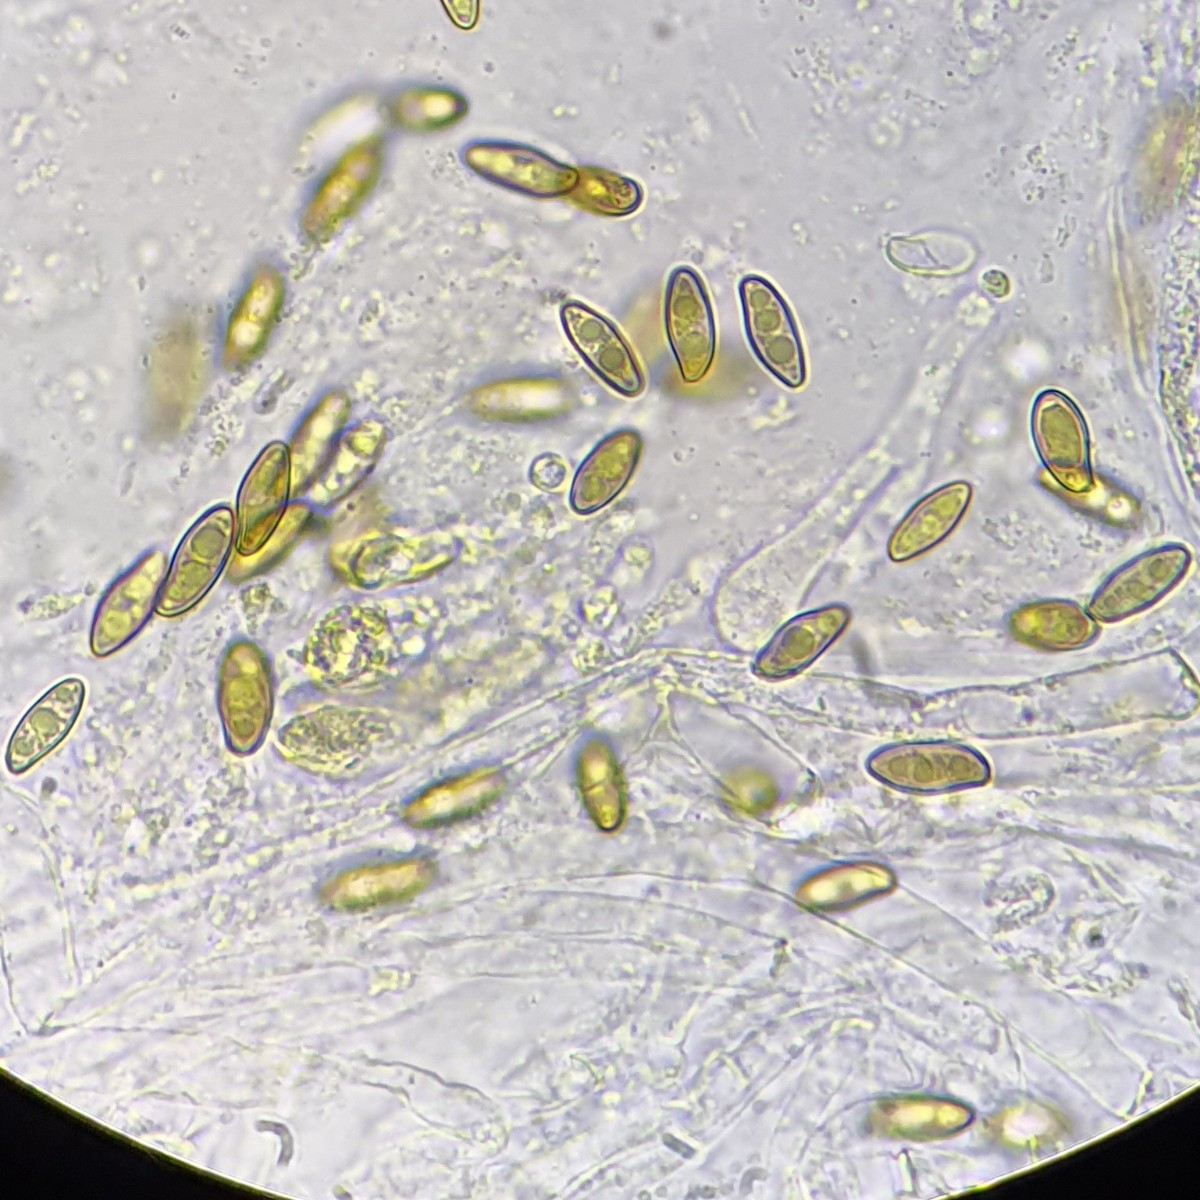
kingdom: Fungi
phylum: Basidiomycota
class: Agaricomycetes
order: Boletales
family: Boletaceae
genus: Xerocomellus
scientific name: Xerocomellus chrysenteron
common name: rødsprukken rørhat
